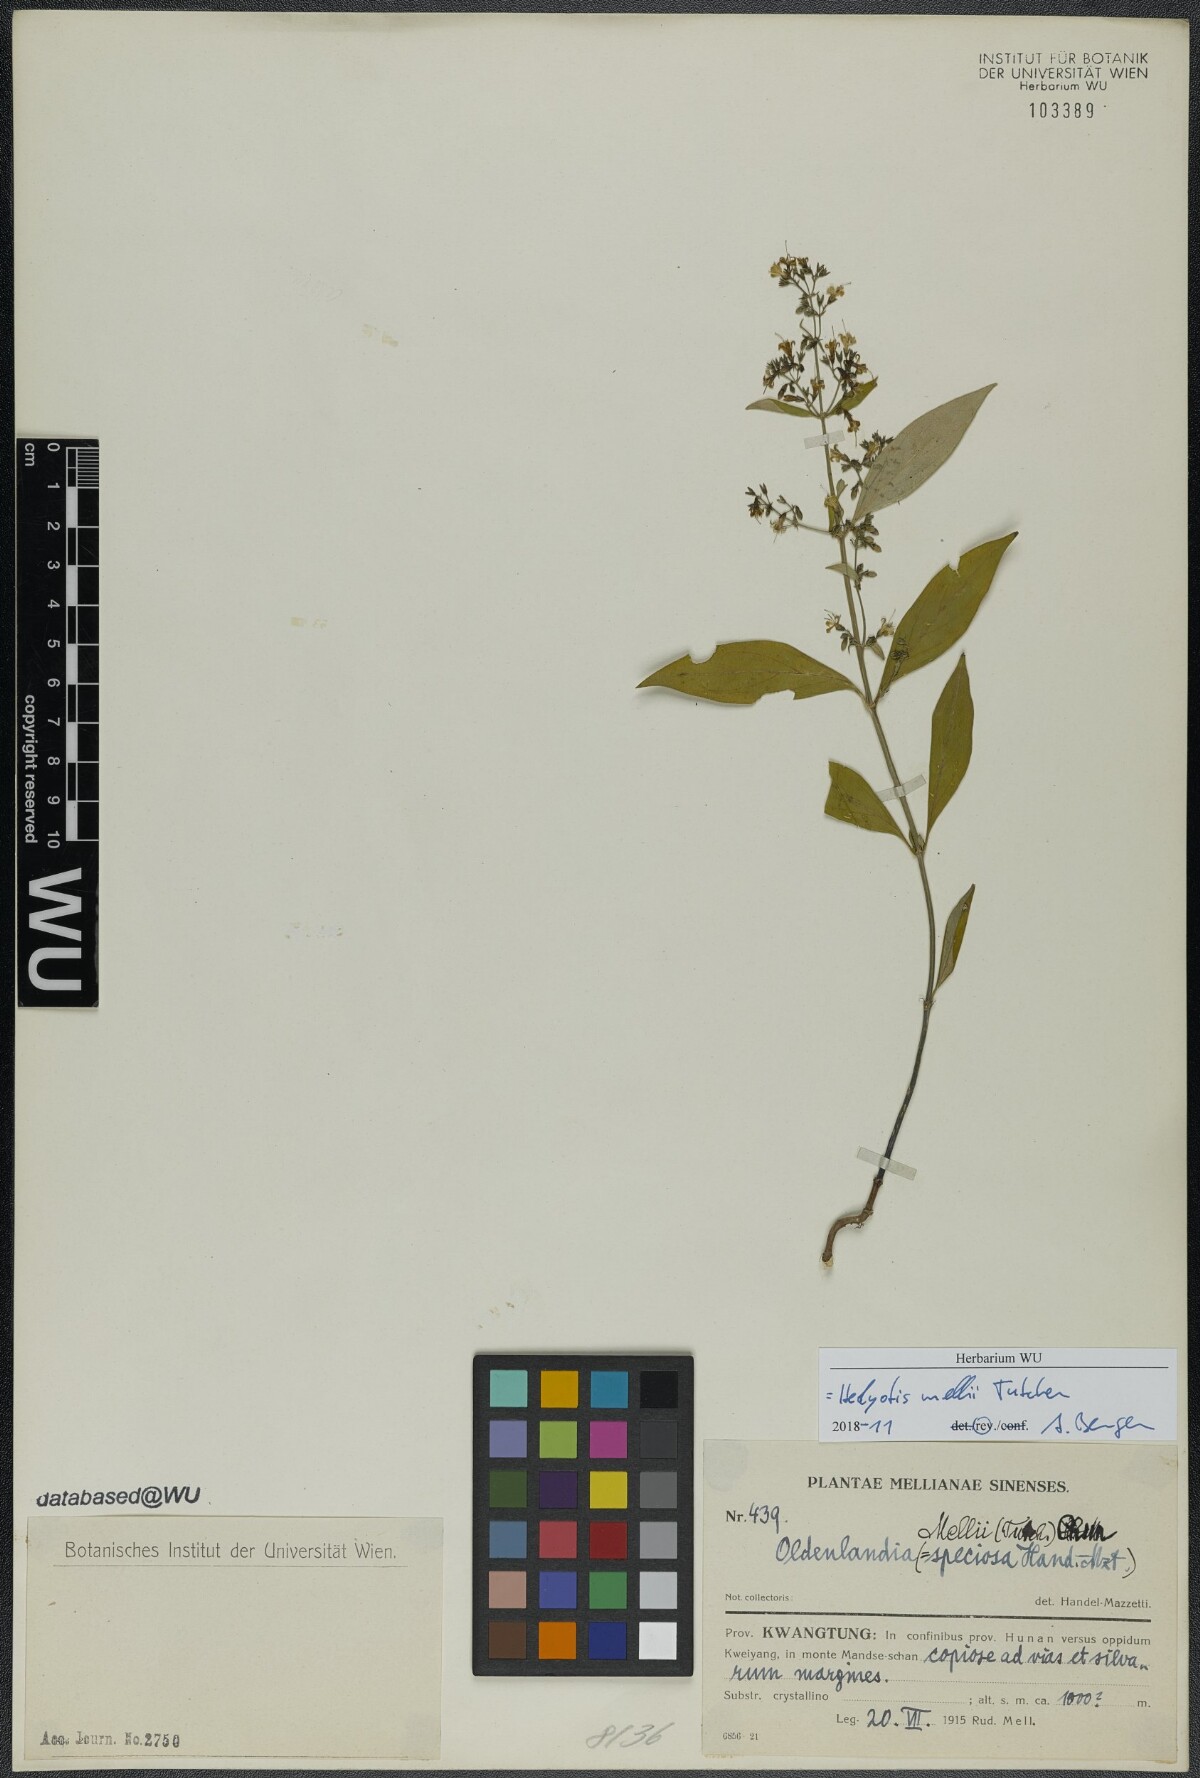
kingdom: Plantae
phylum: Tracheophyta
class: Magnoliopsida
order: Gentianales
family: Rubiaceae
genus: Hedyotis
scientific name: Hedyotis matthewii
